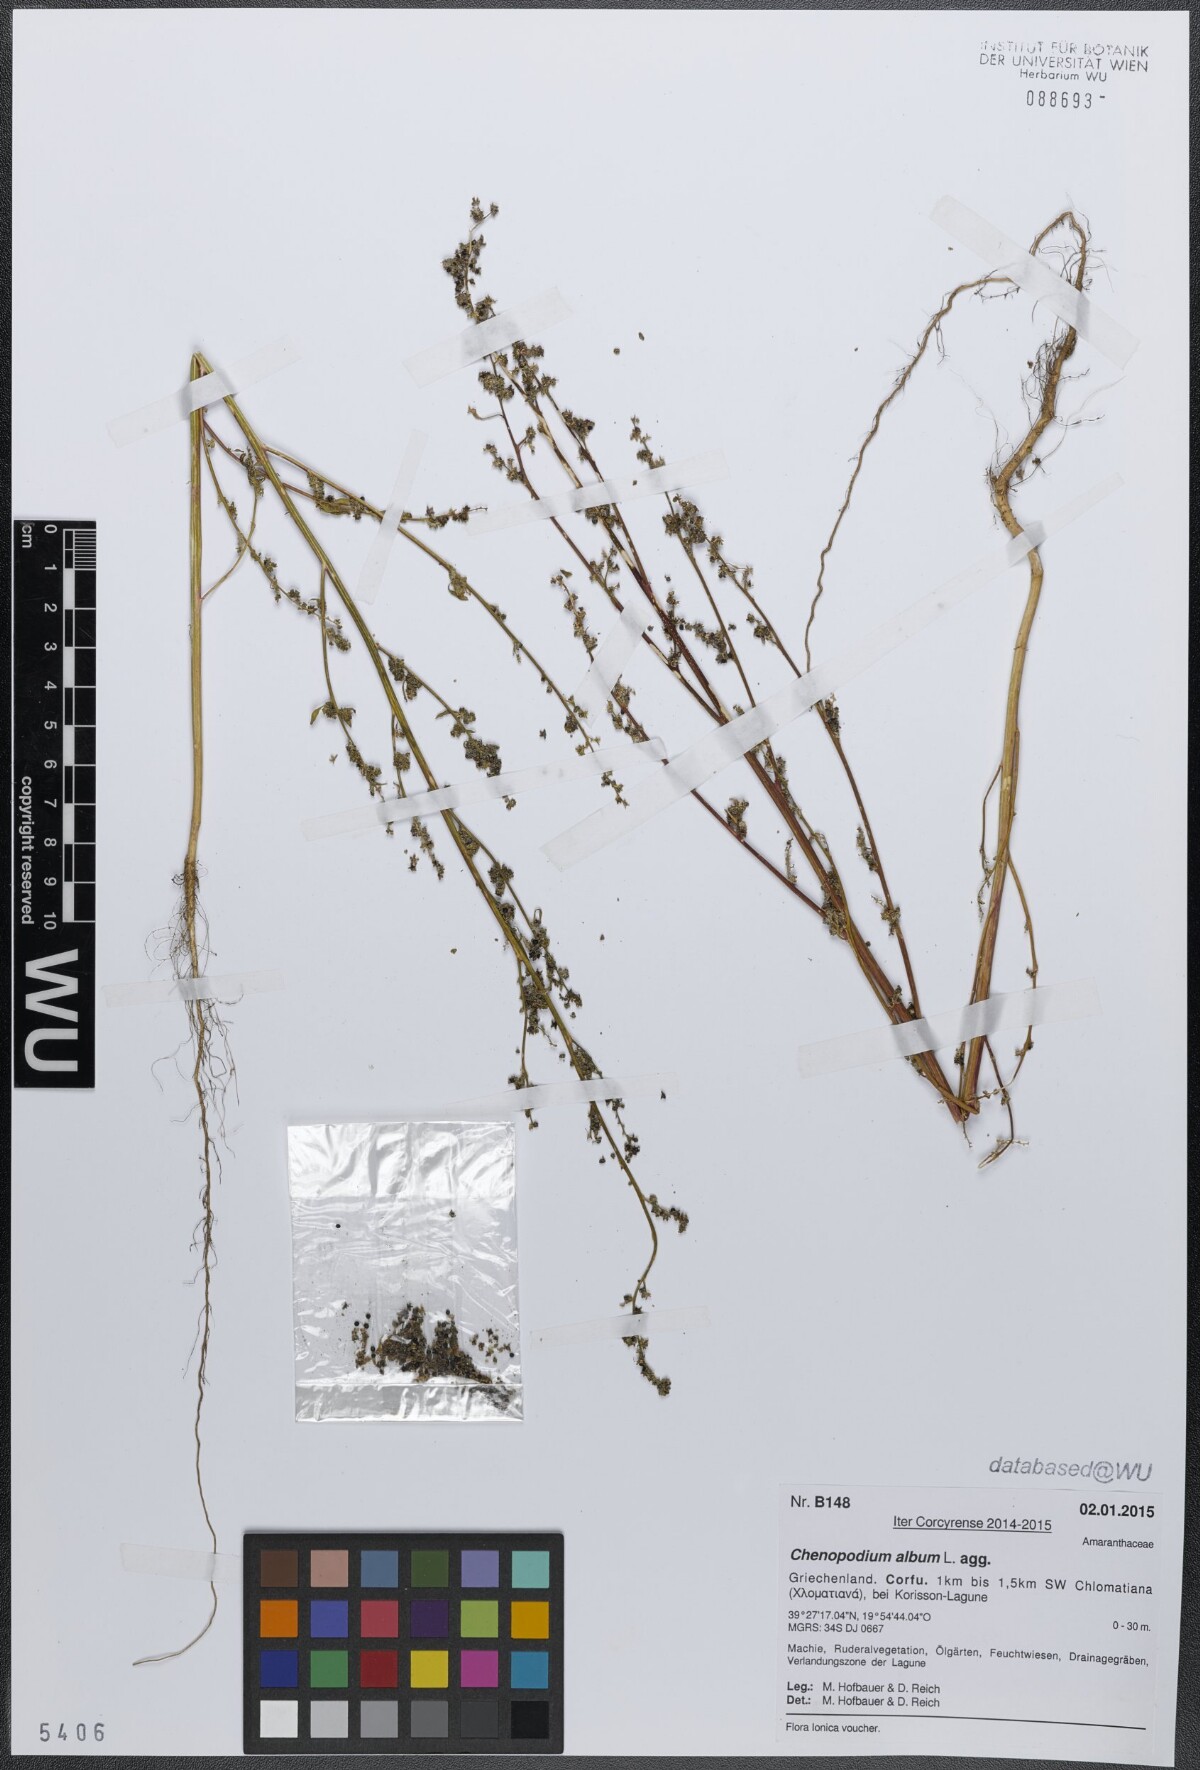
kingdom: Plantae
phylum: Tracheophyta
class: Magnoliopsida
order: Caryophyllales
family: Amaranthaceae
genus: Chenopodium
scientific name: Chenopodium album
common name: Fat-hen
